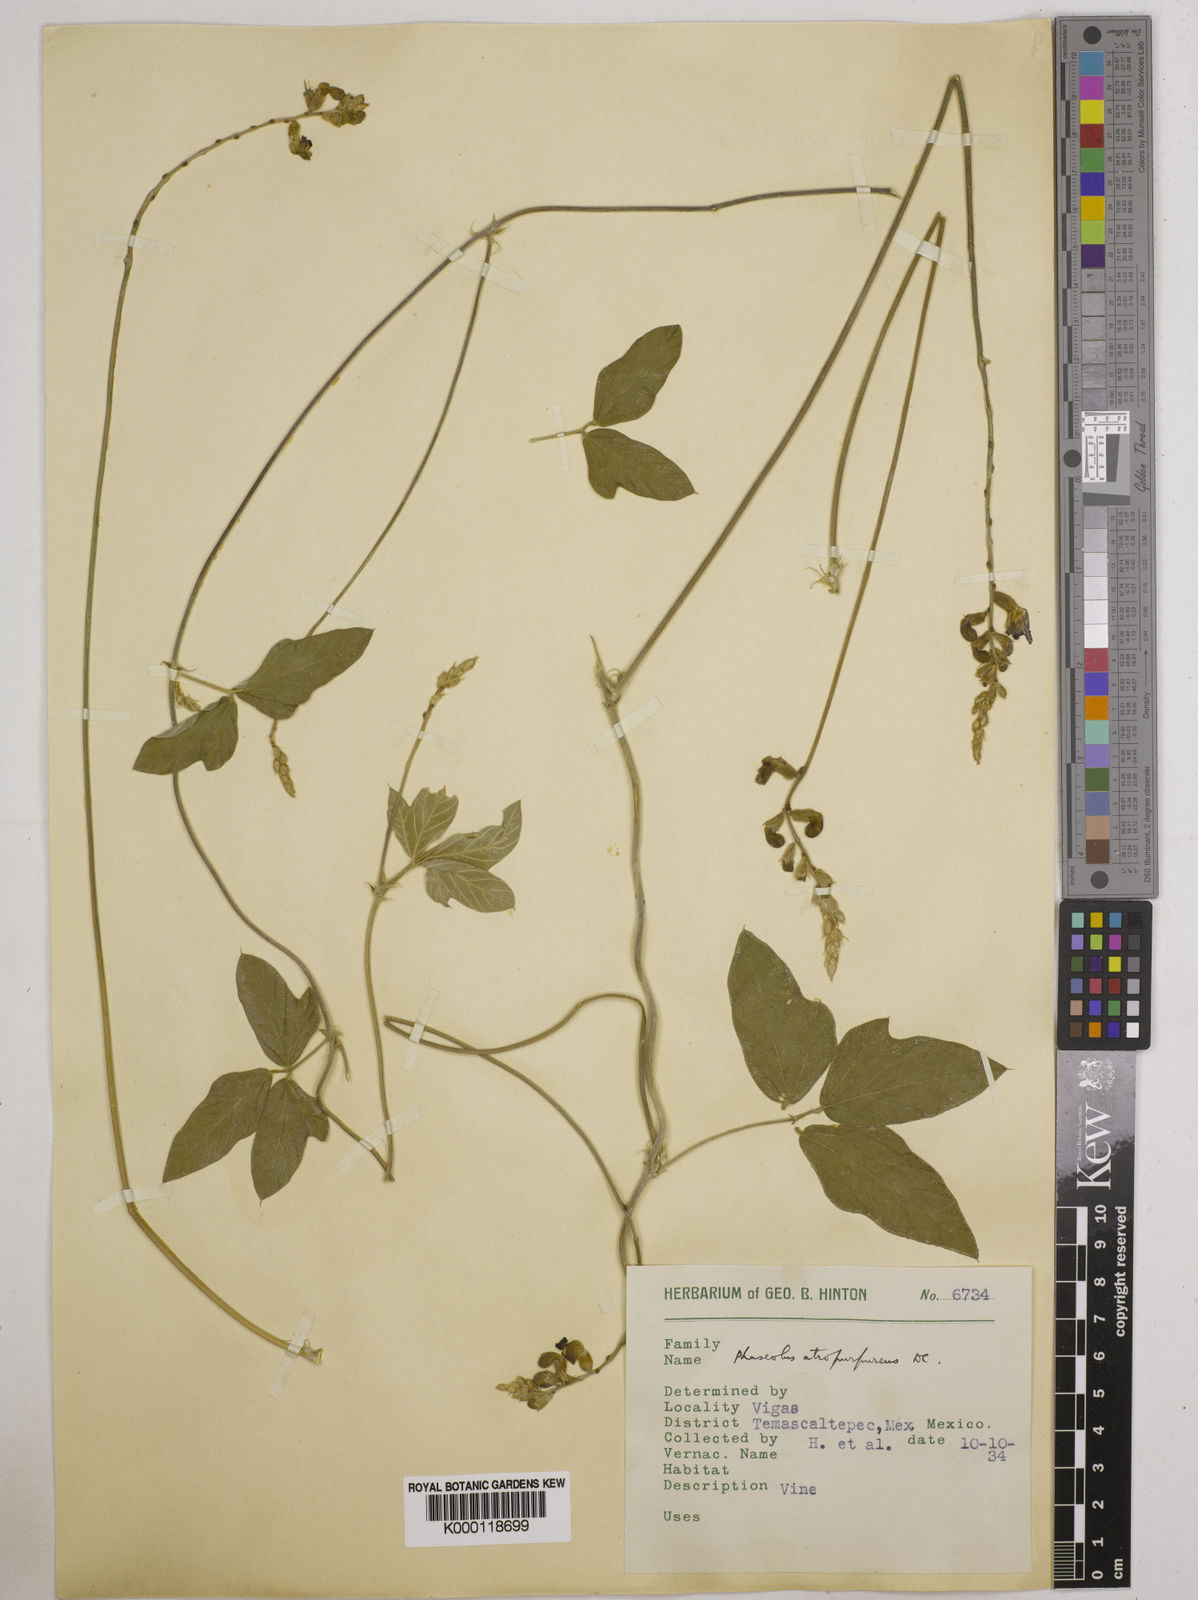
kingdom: Plantae
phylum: Tracheophyta
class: Magnoliopsida
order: Fabales
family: Fabaceae
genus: Macroptilium
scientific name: Macroptilium atropurpureum
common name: Purple bushbean
